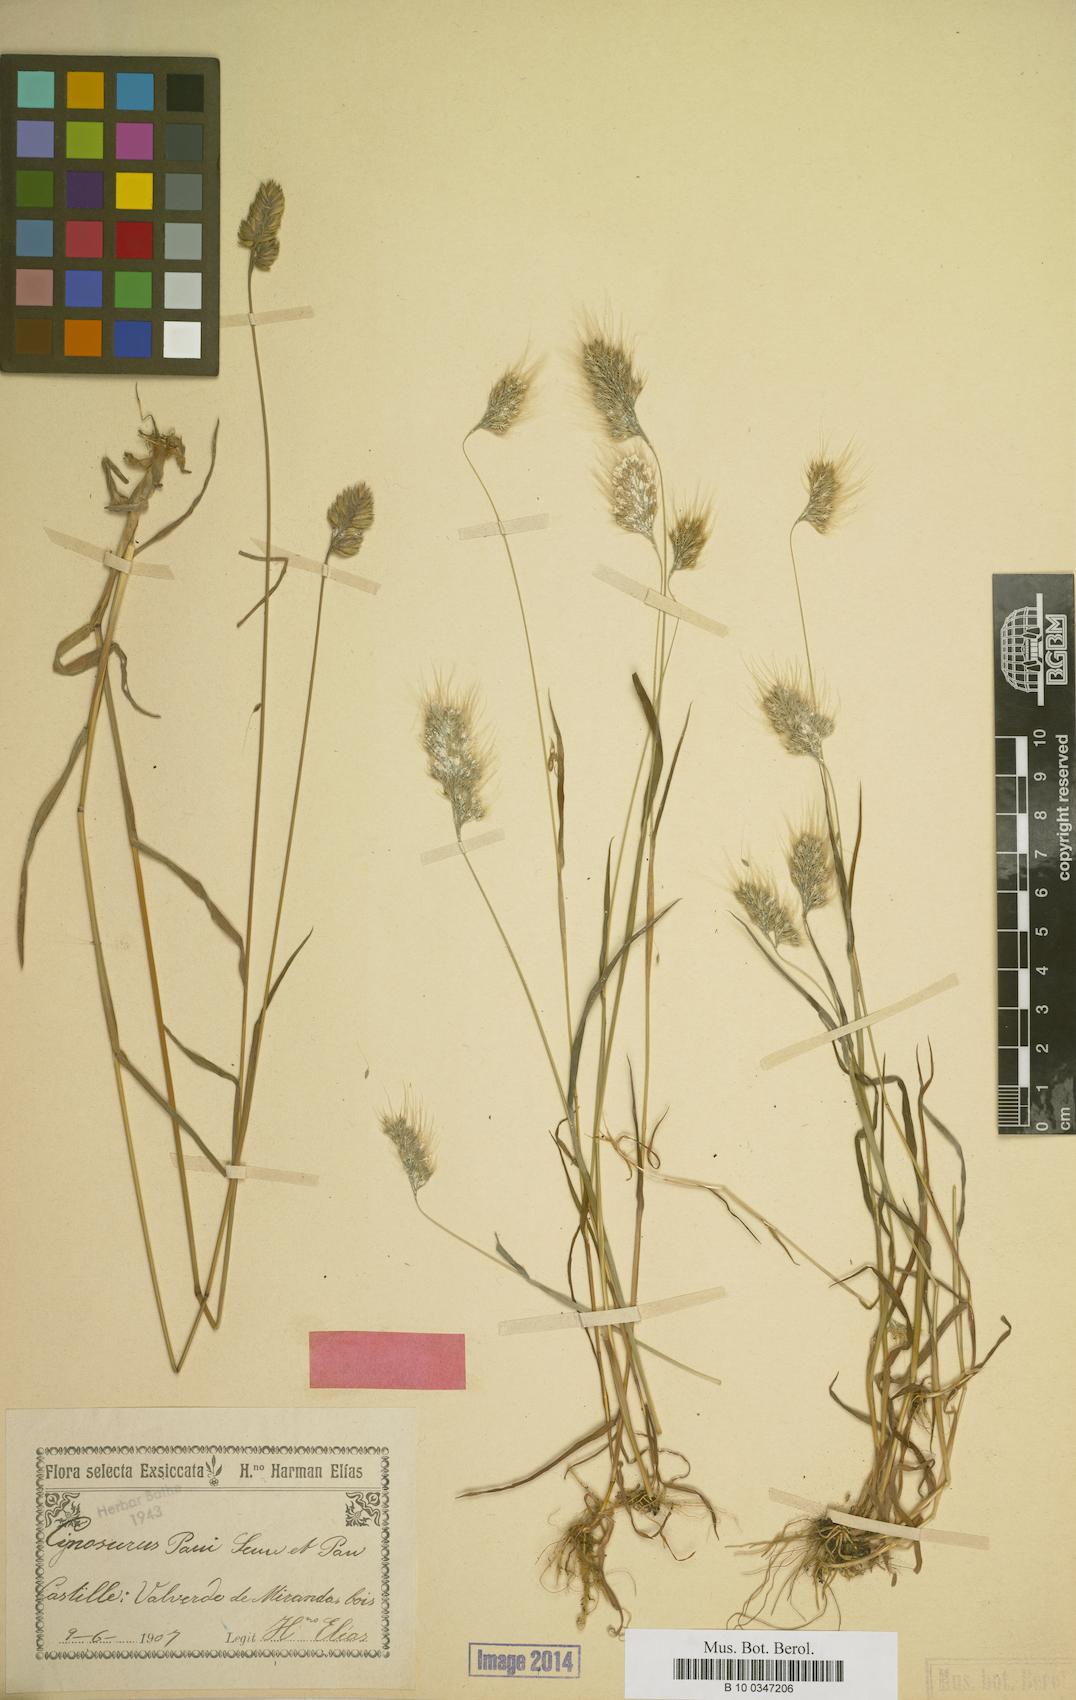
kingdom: Plantae
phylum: Tracheophyta
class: Liliopsida
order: Poales
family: Poaceae
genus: Cynosurus
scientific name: Cynosurus effusus
